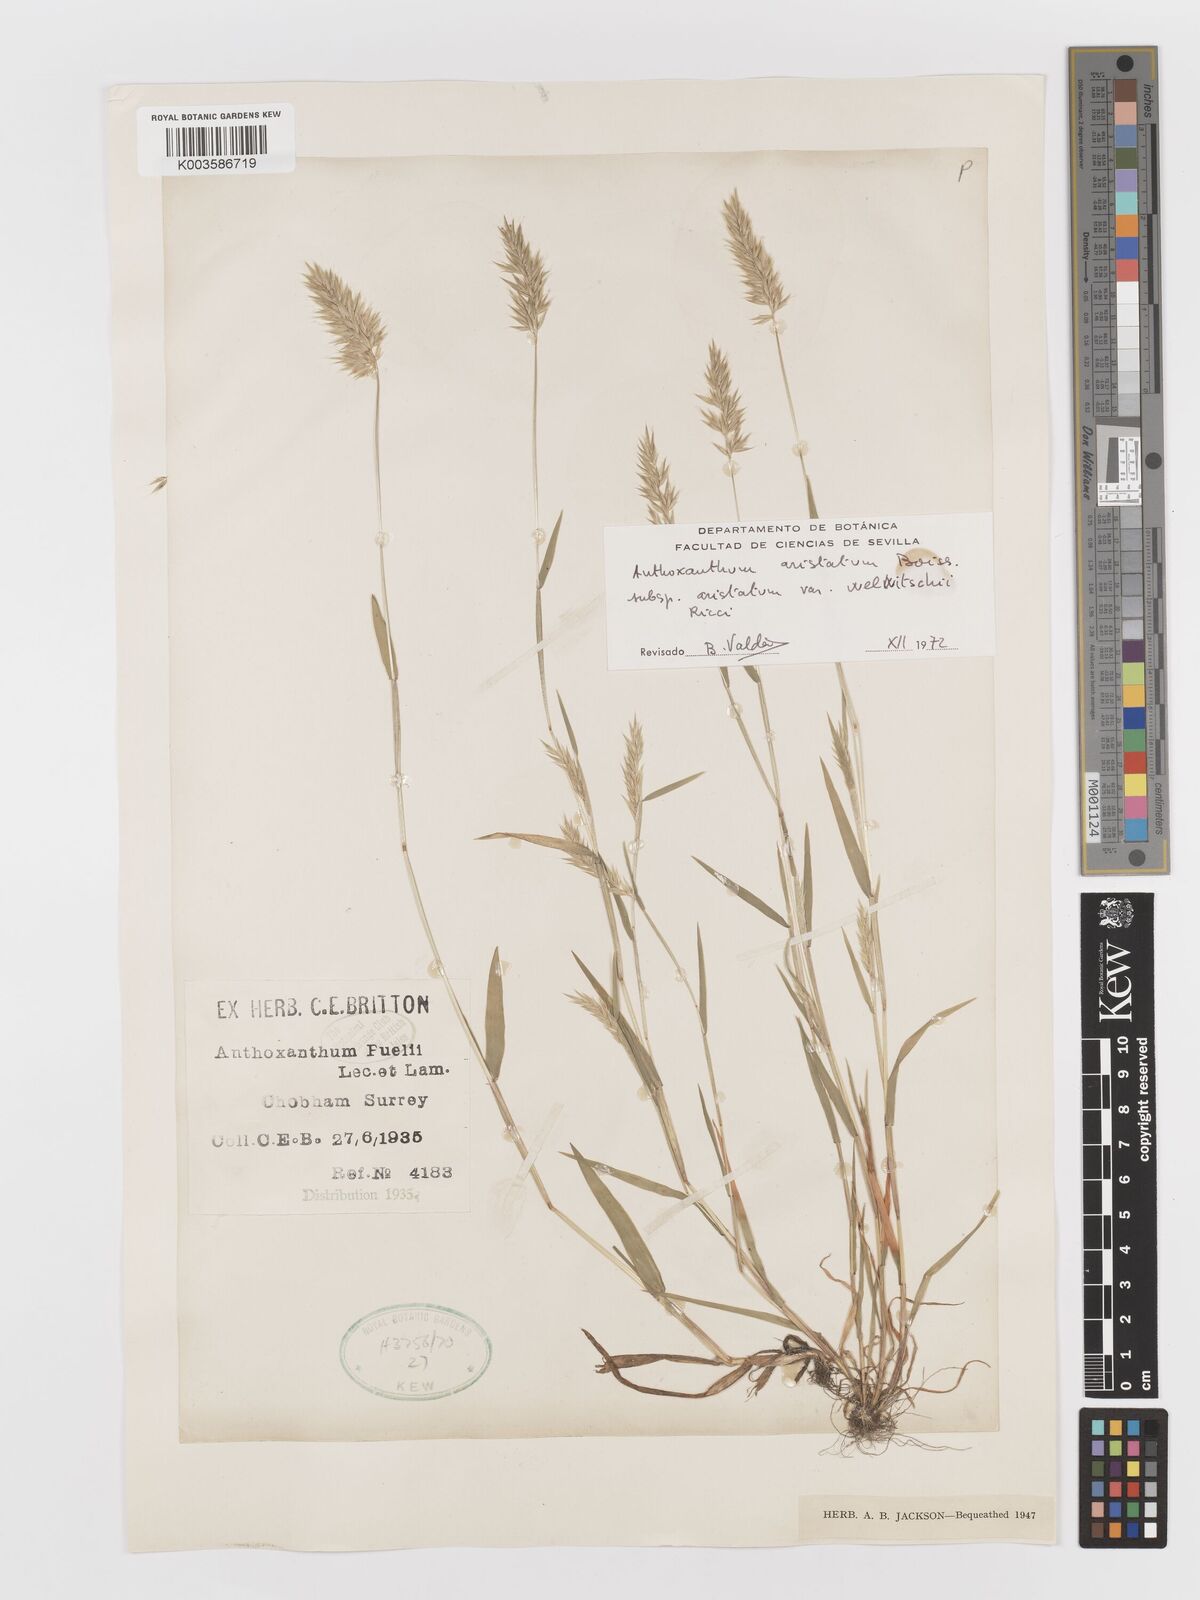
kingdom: Plantae
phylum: Tracheophyta
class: Liliopsida
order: Poales
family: Poaceae
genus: Anthoxanthum
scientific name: Anthoxanthum aristatum
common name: Annual vernal-grass
